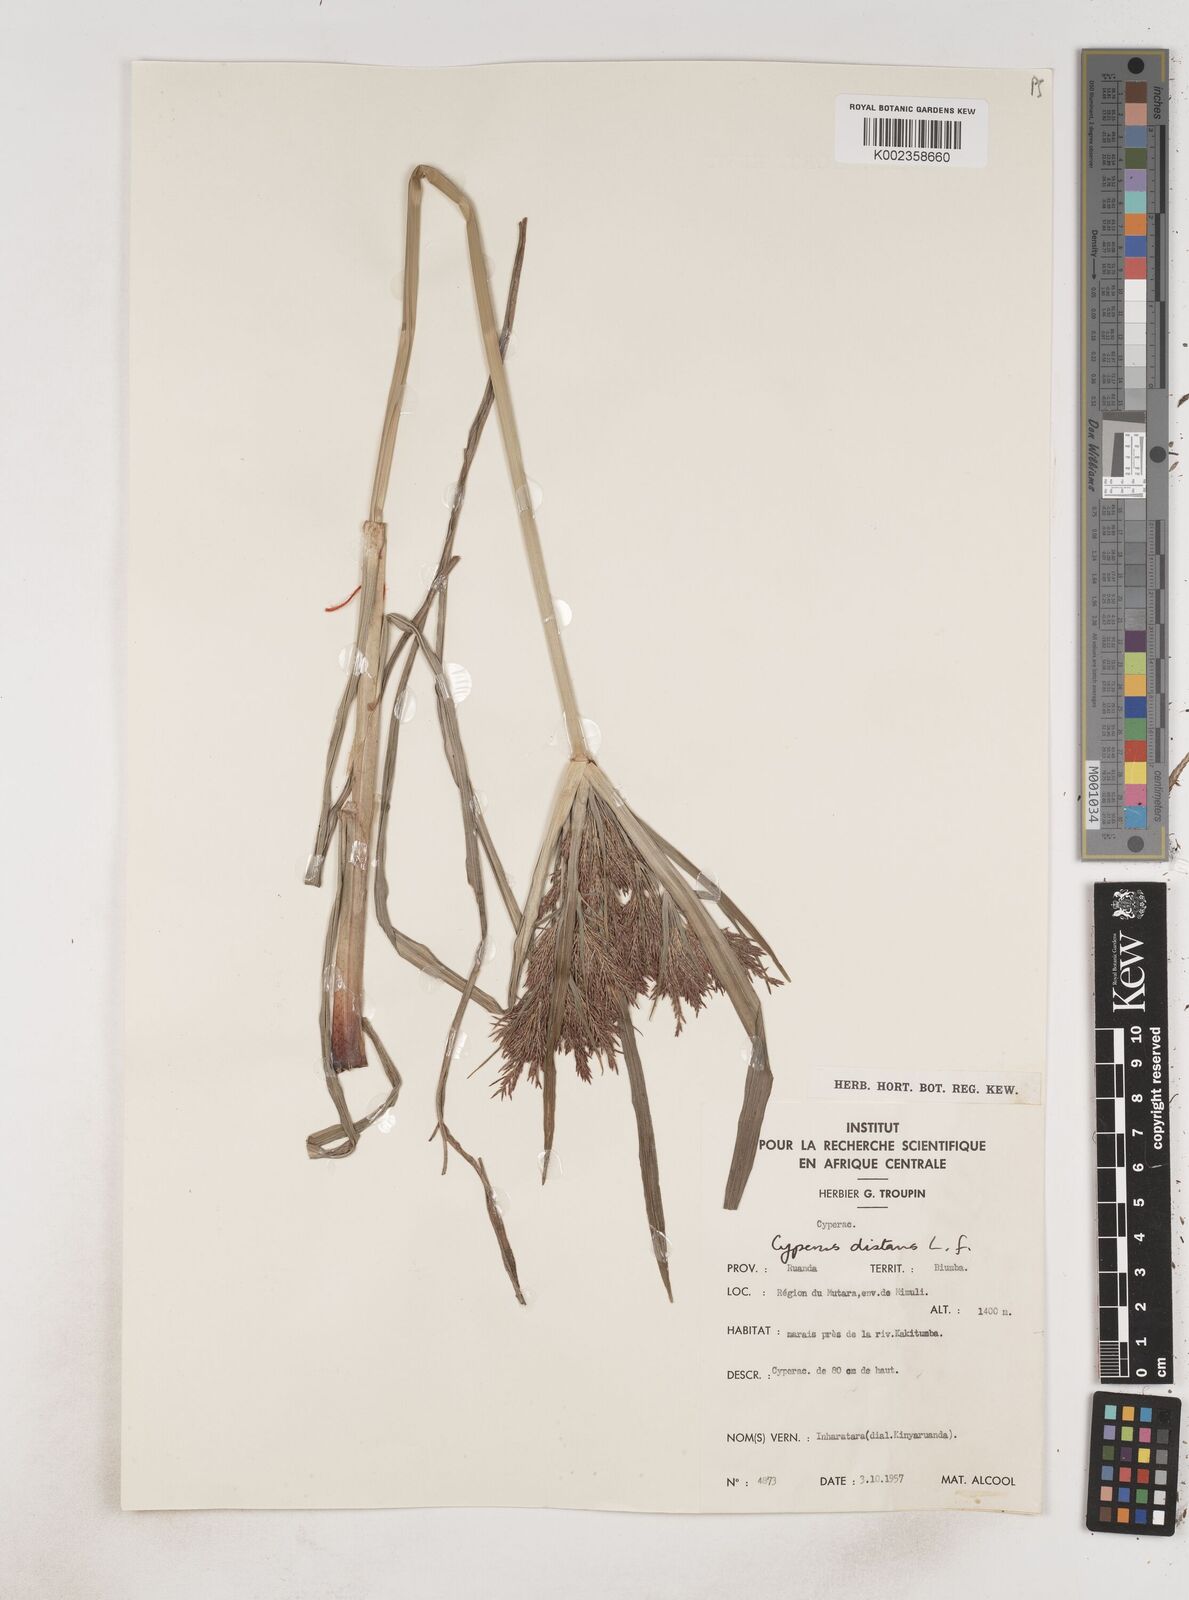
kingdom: Plantae
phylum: Tracheophyta
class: Liliopsida
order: Poales
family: Cyperaceae
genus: Cyperus
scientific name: Cyperus distans
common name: Slender cyperus
